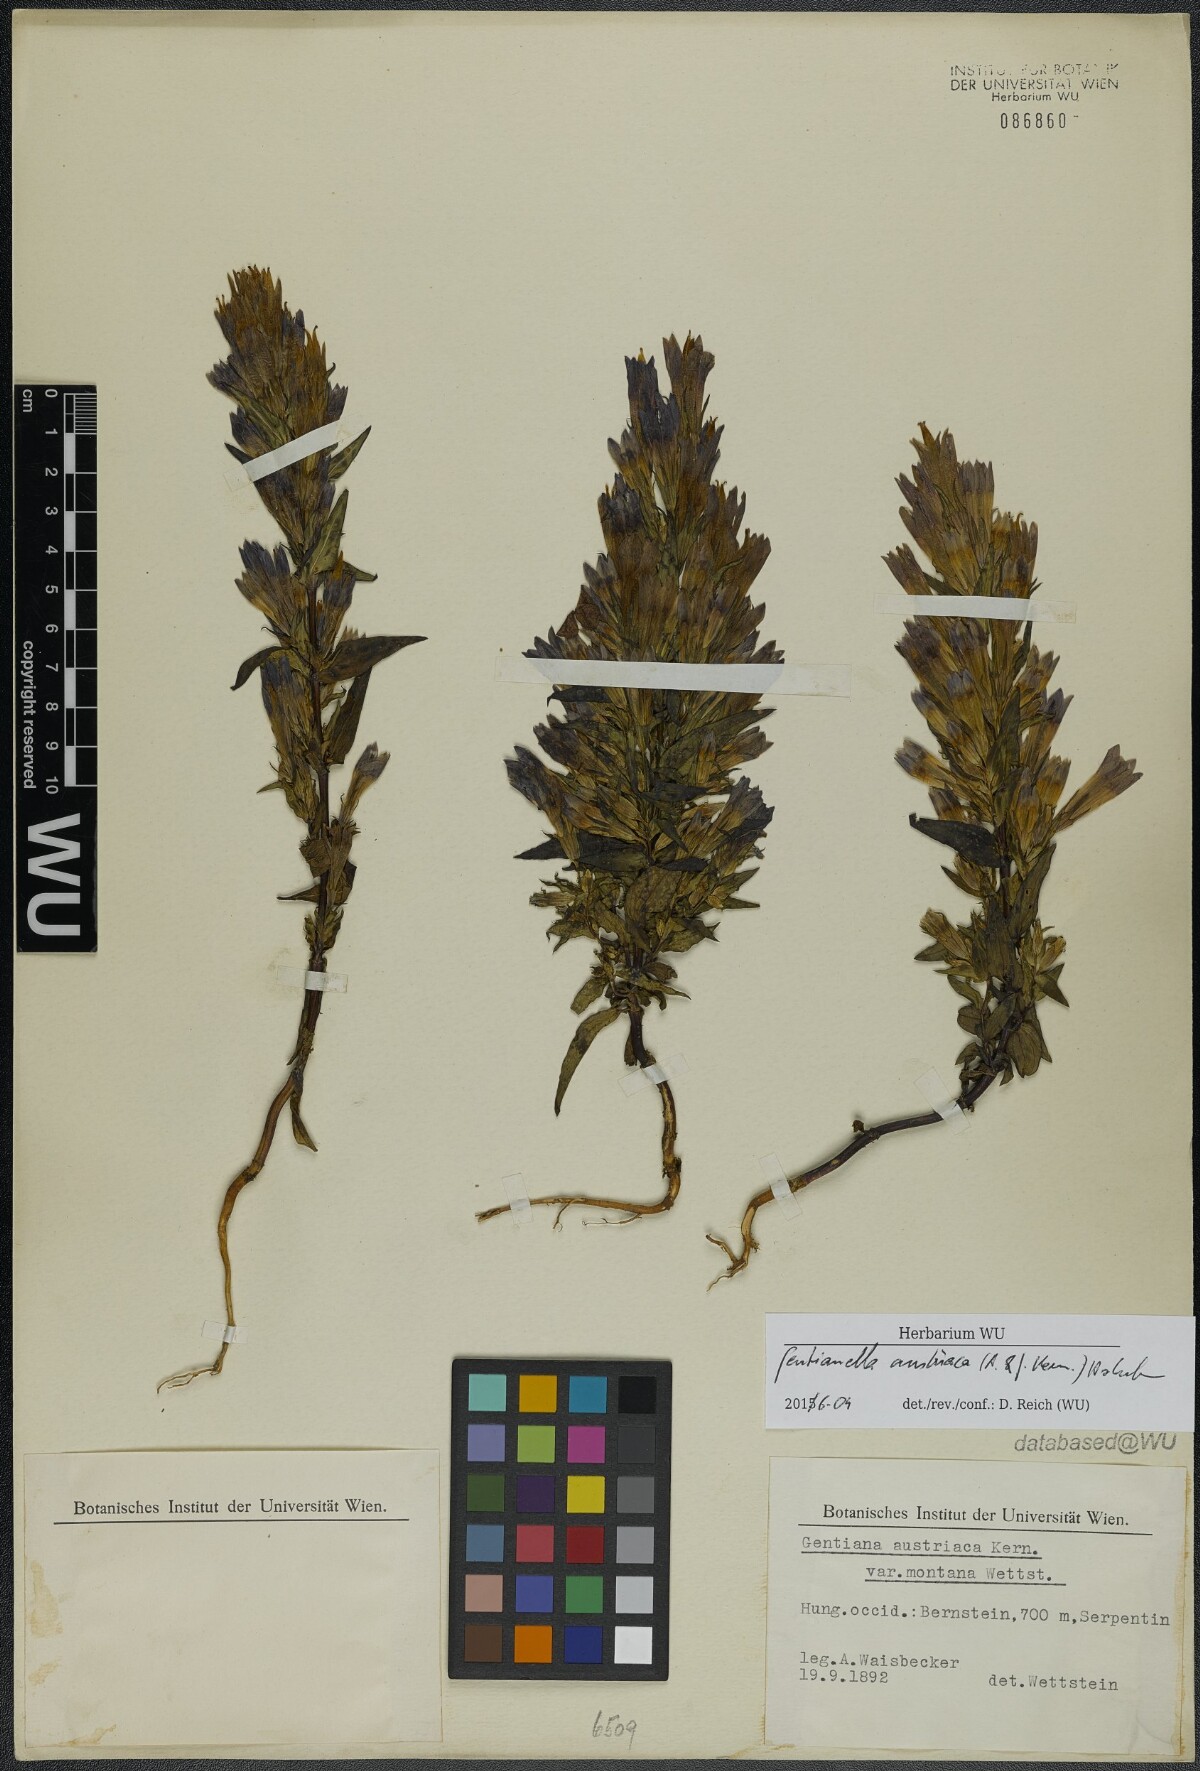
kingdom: Plantae
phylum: Tracheophyta
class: Magnoliopsida
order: Gentianales
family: Gentianaceae
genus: Gentianella
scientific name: Gentianella austriaca
